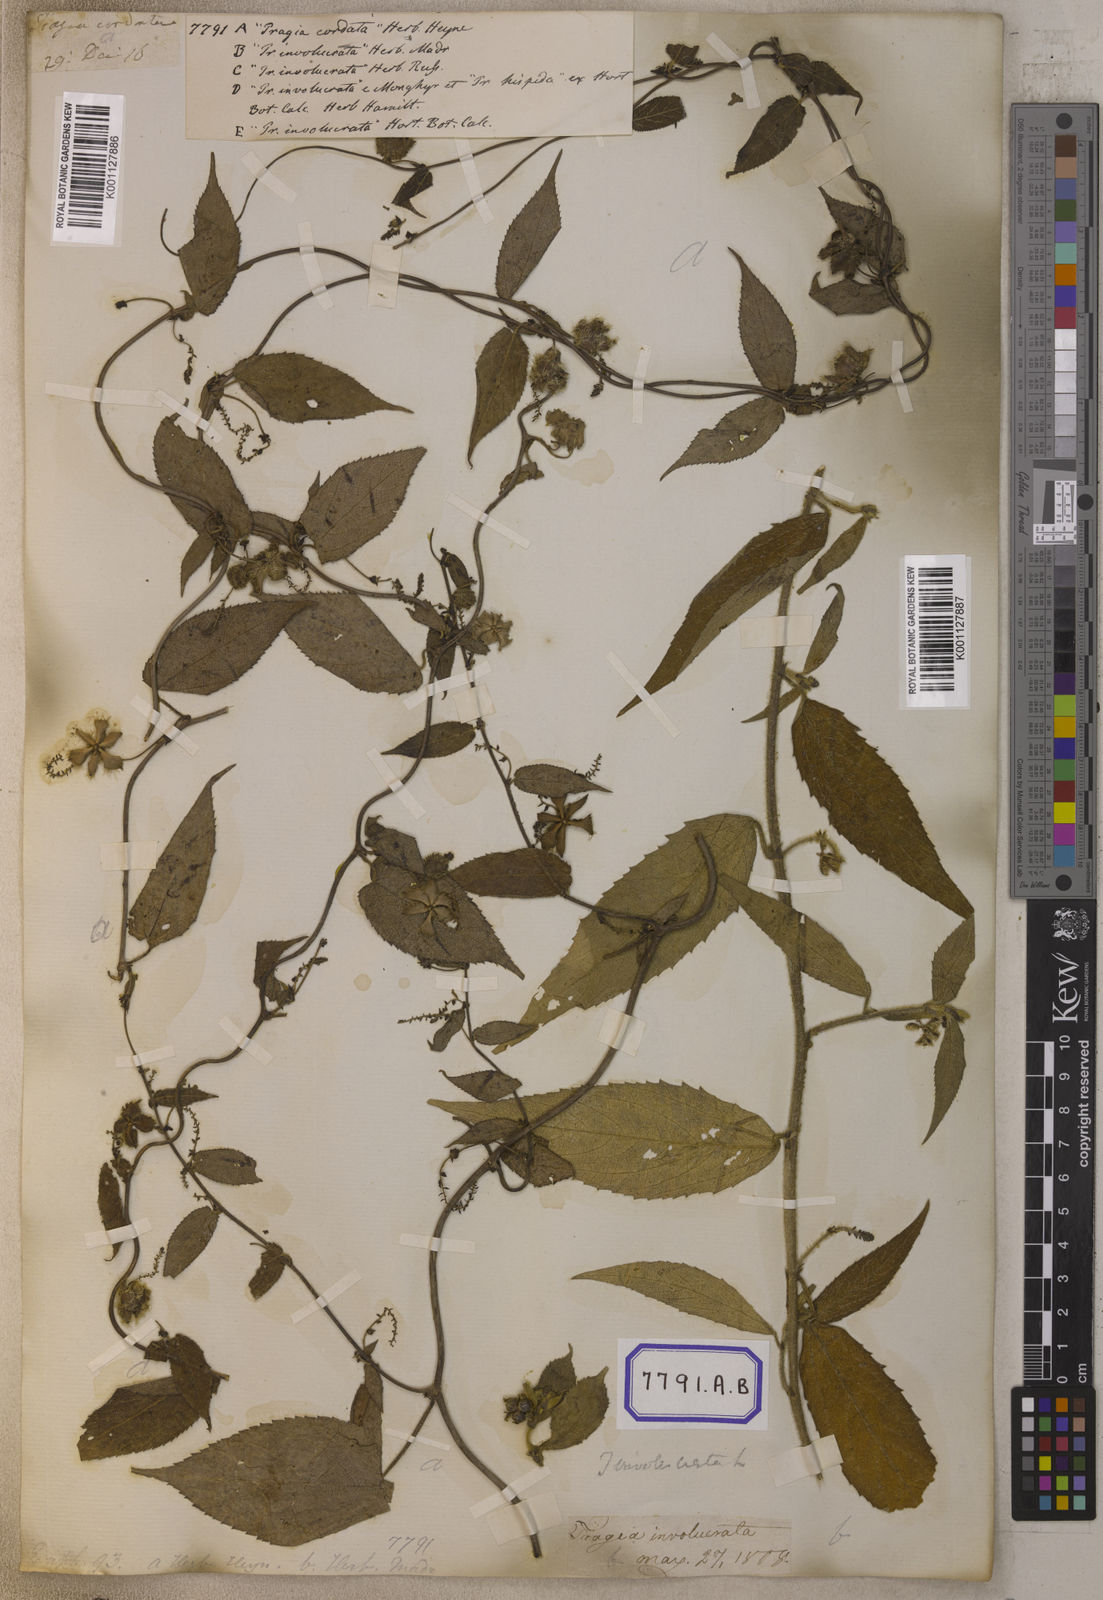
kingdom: Plantae
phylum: Tracheophyta
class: Magnoliopsida
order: Malpighiales
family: Euphorbiaceae
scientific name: Euphorbiaceae
